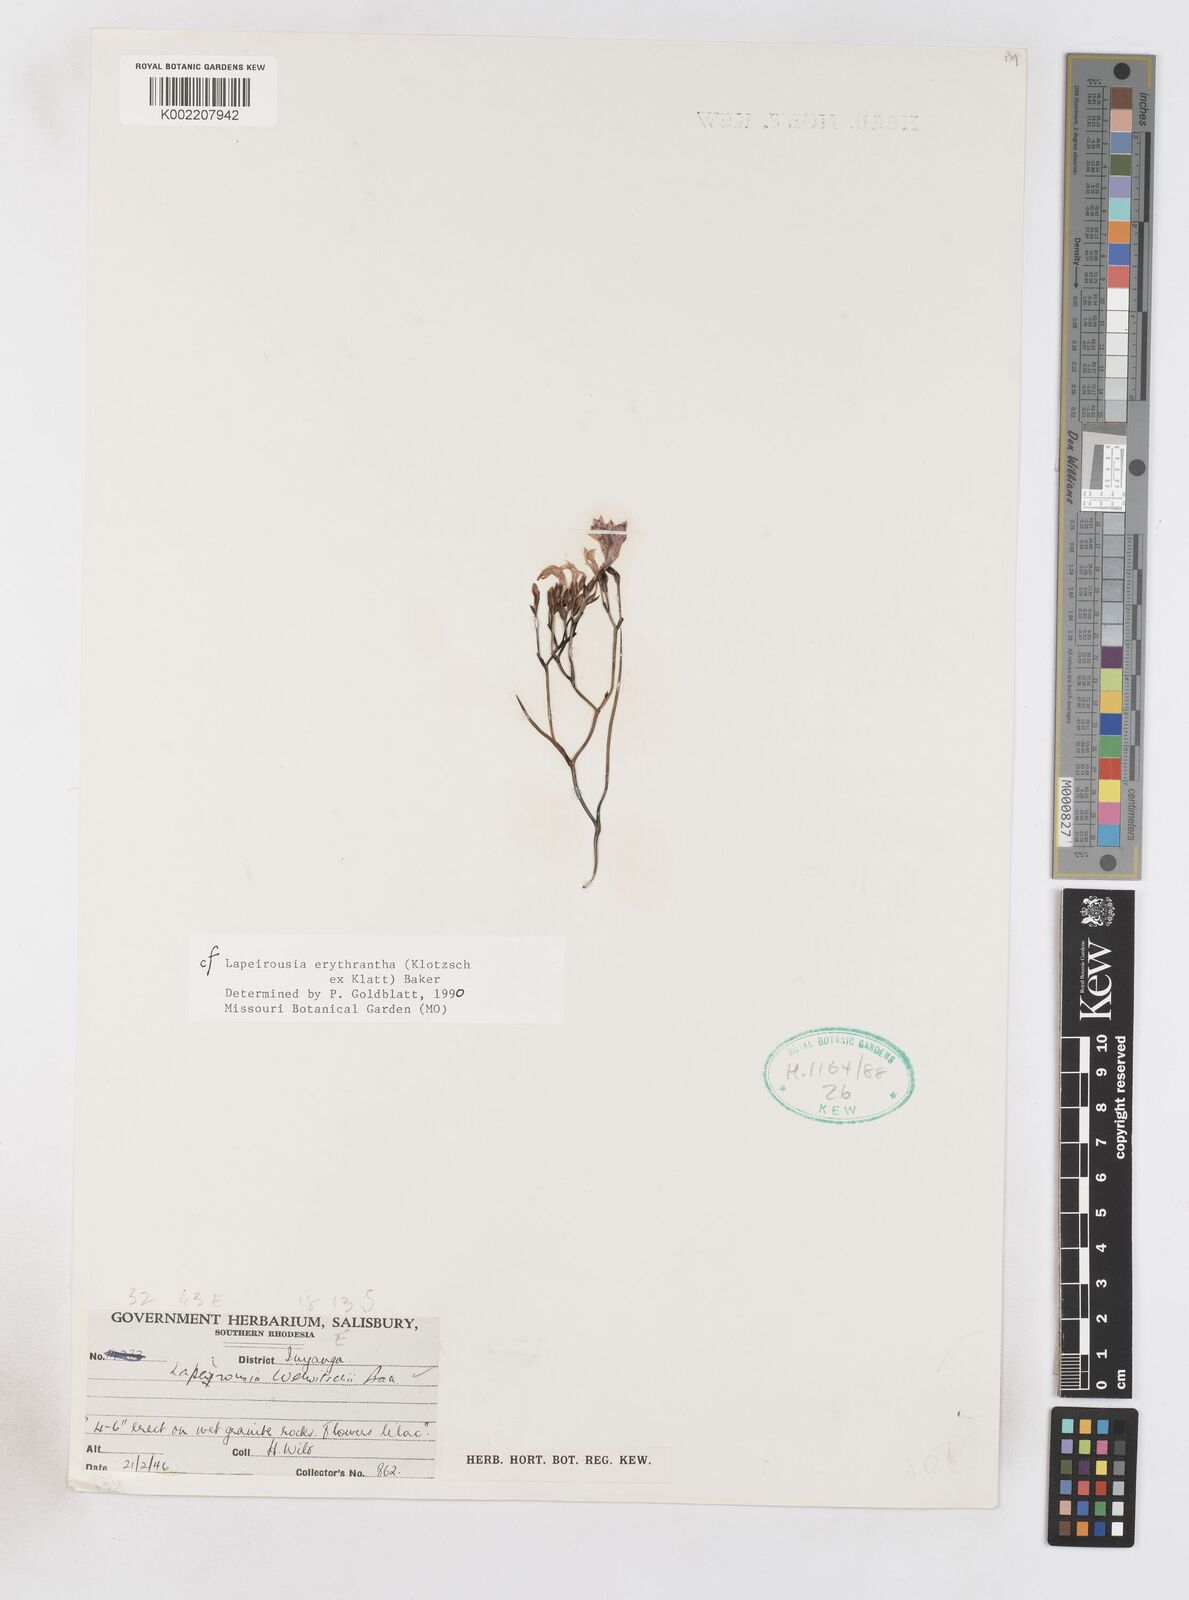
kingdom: Plantae
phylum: Tracheophyta
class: Liliopsida
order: Asparagales
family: Iridaceae
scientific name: Iridaceae
